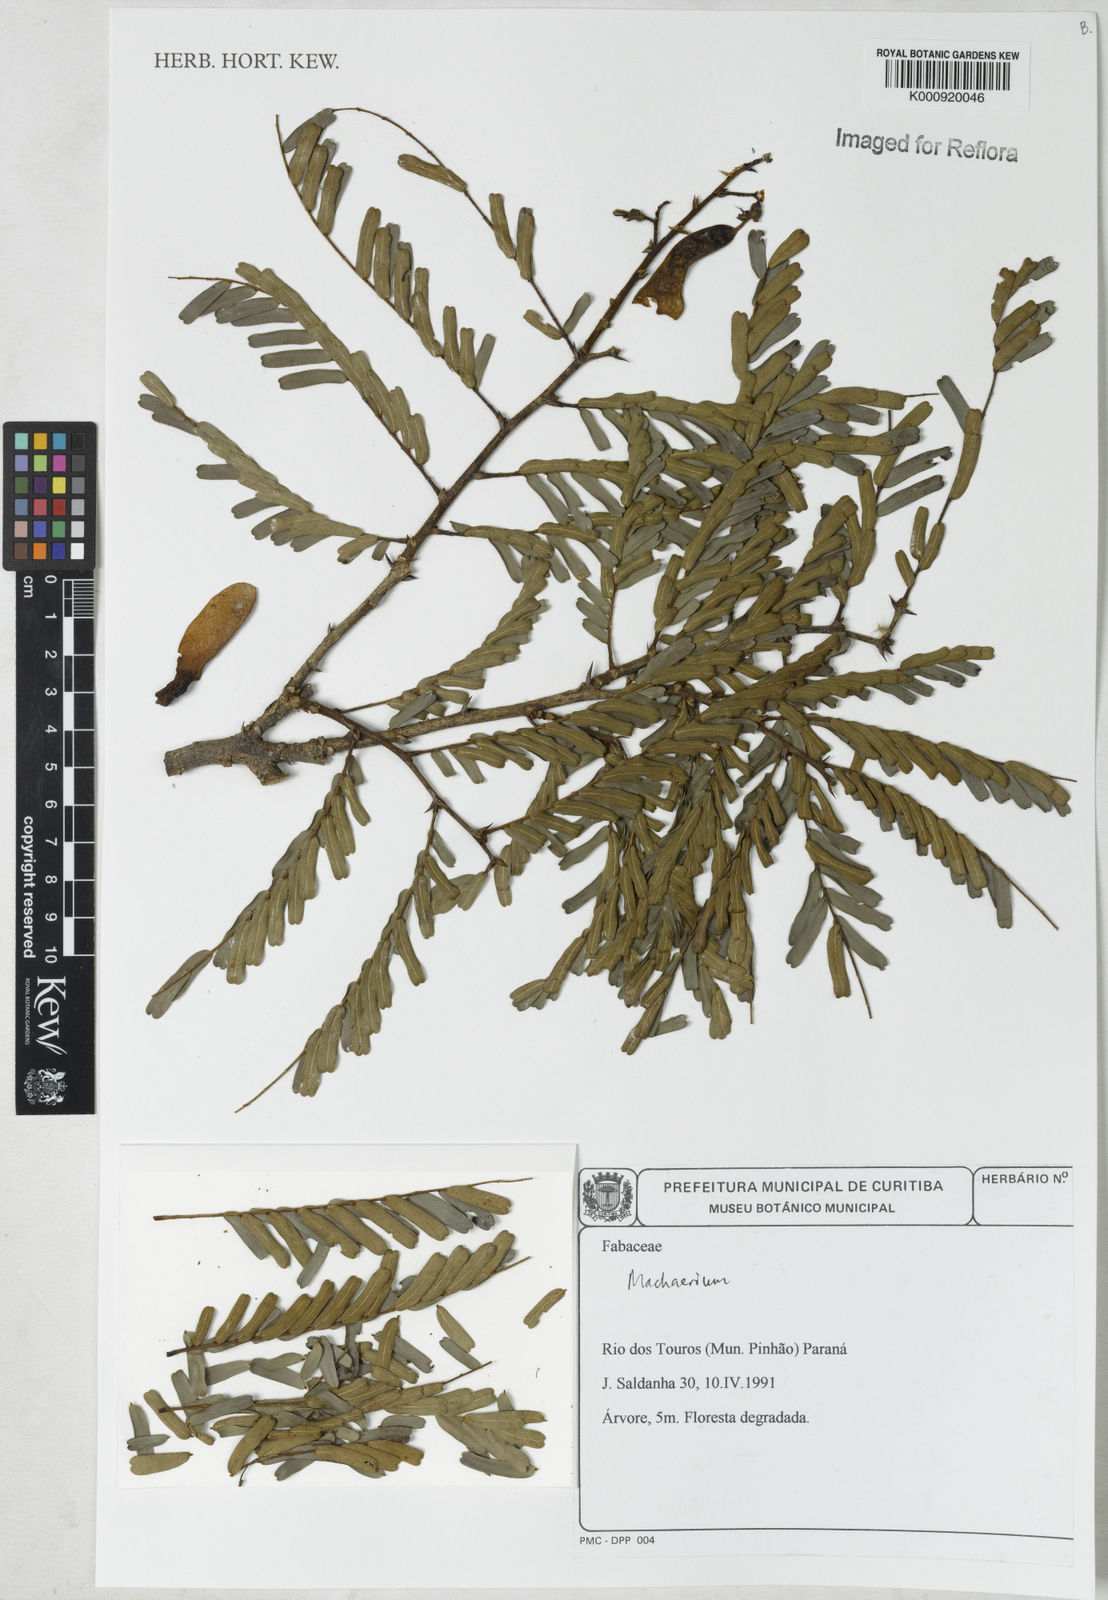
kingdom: Plantae
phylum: Tracheophyta
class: Magnoliopsida
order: Fabales
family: Fabaceae
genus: Machaerium
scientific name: Machaerium
